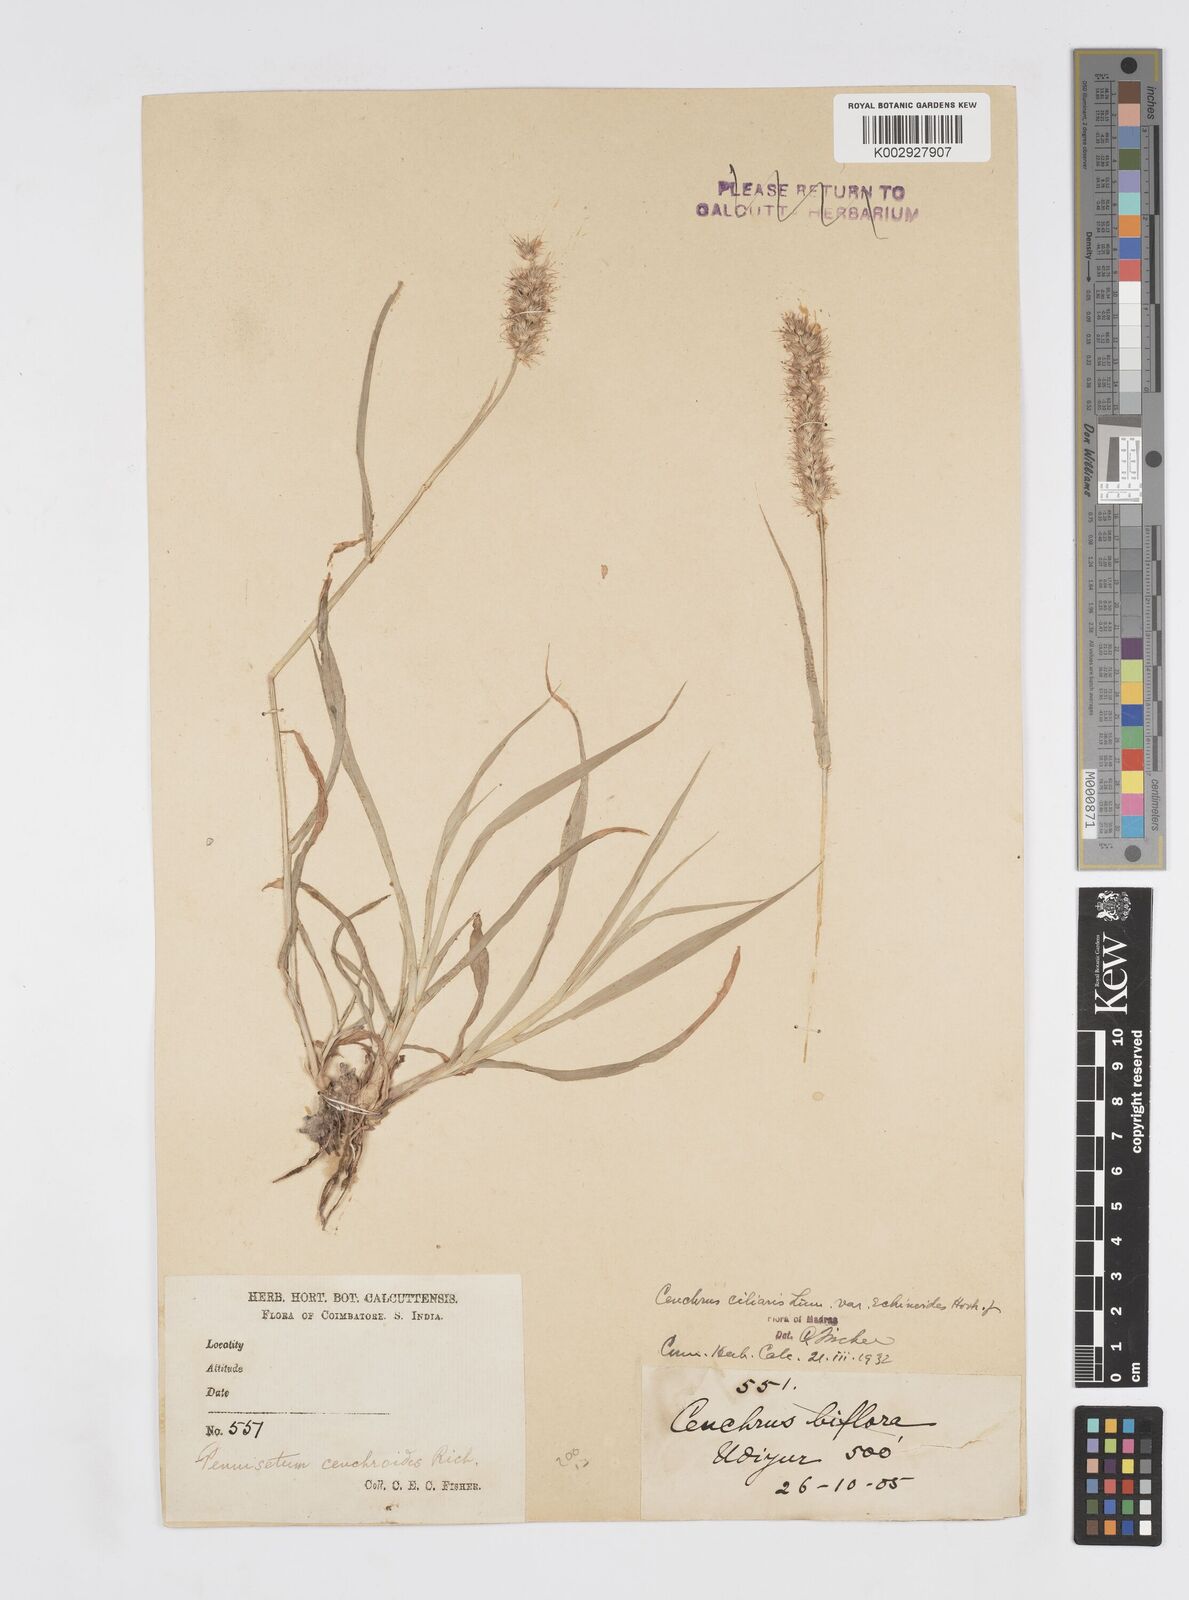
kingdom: Plantae
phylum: Tracheophyta
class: Liliopsida
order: Poales
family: Poaceae
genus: Cenchrus
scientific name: Cenchrus pennisetiformis
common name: Cloncurry
